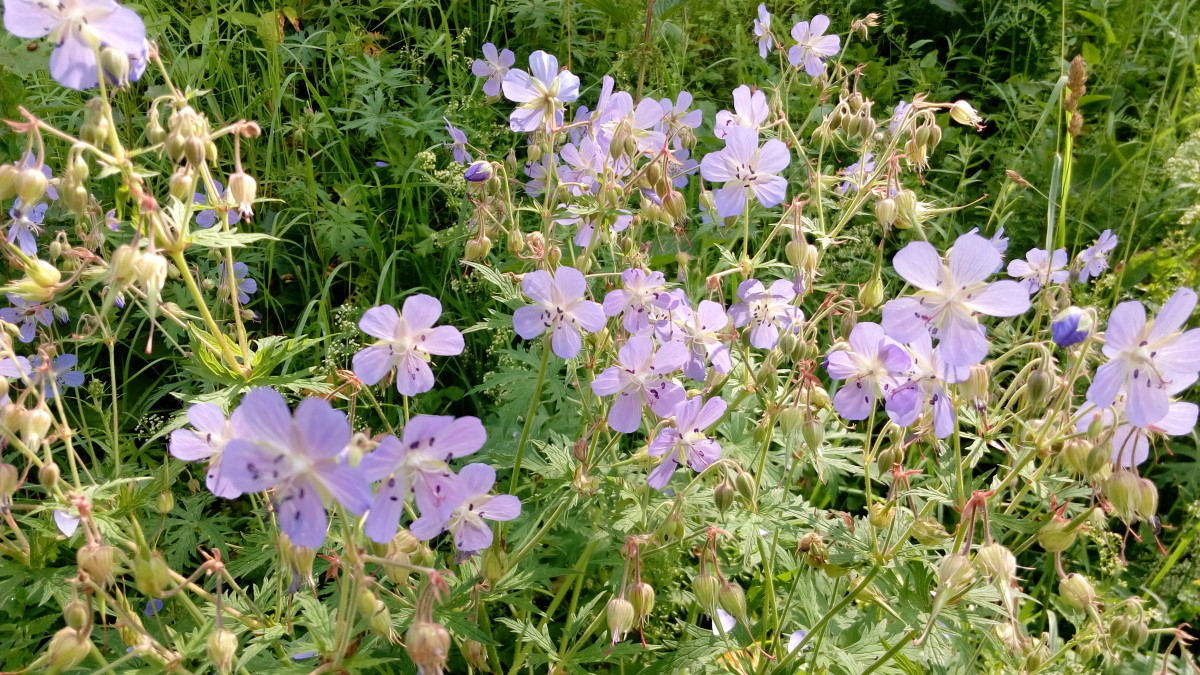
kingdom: Plantae
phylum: Tracheophyta
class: Magnoliopsida
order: Geraniales
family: Geraniaceae
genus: Geranium
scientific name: Geranium pratense
